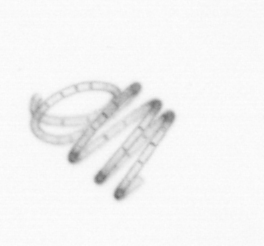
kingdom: Chromista
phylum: Ochrophyta
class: Bacillariophyceae
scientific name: Bacillariophyceae
